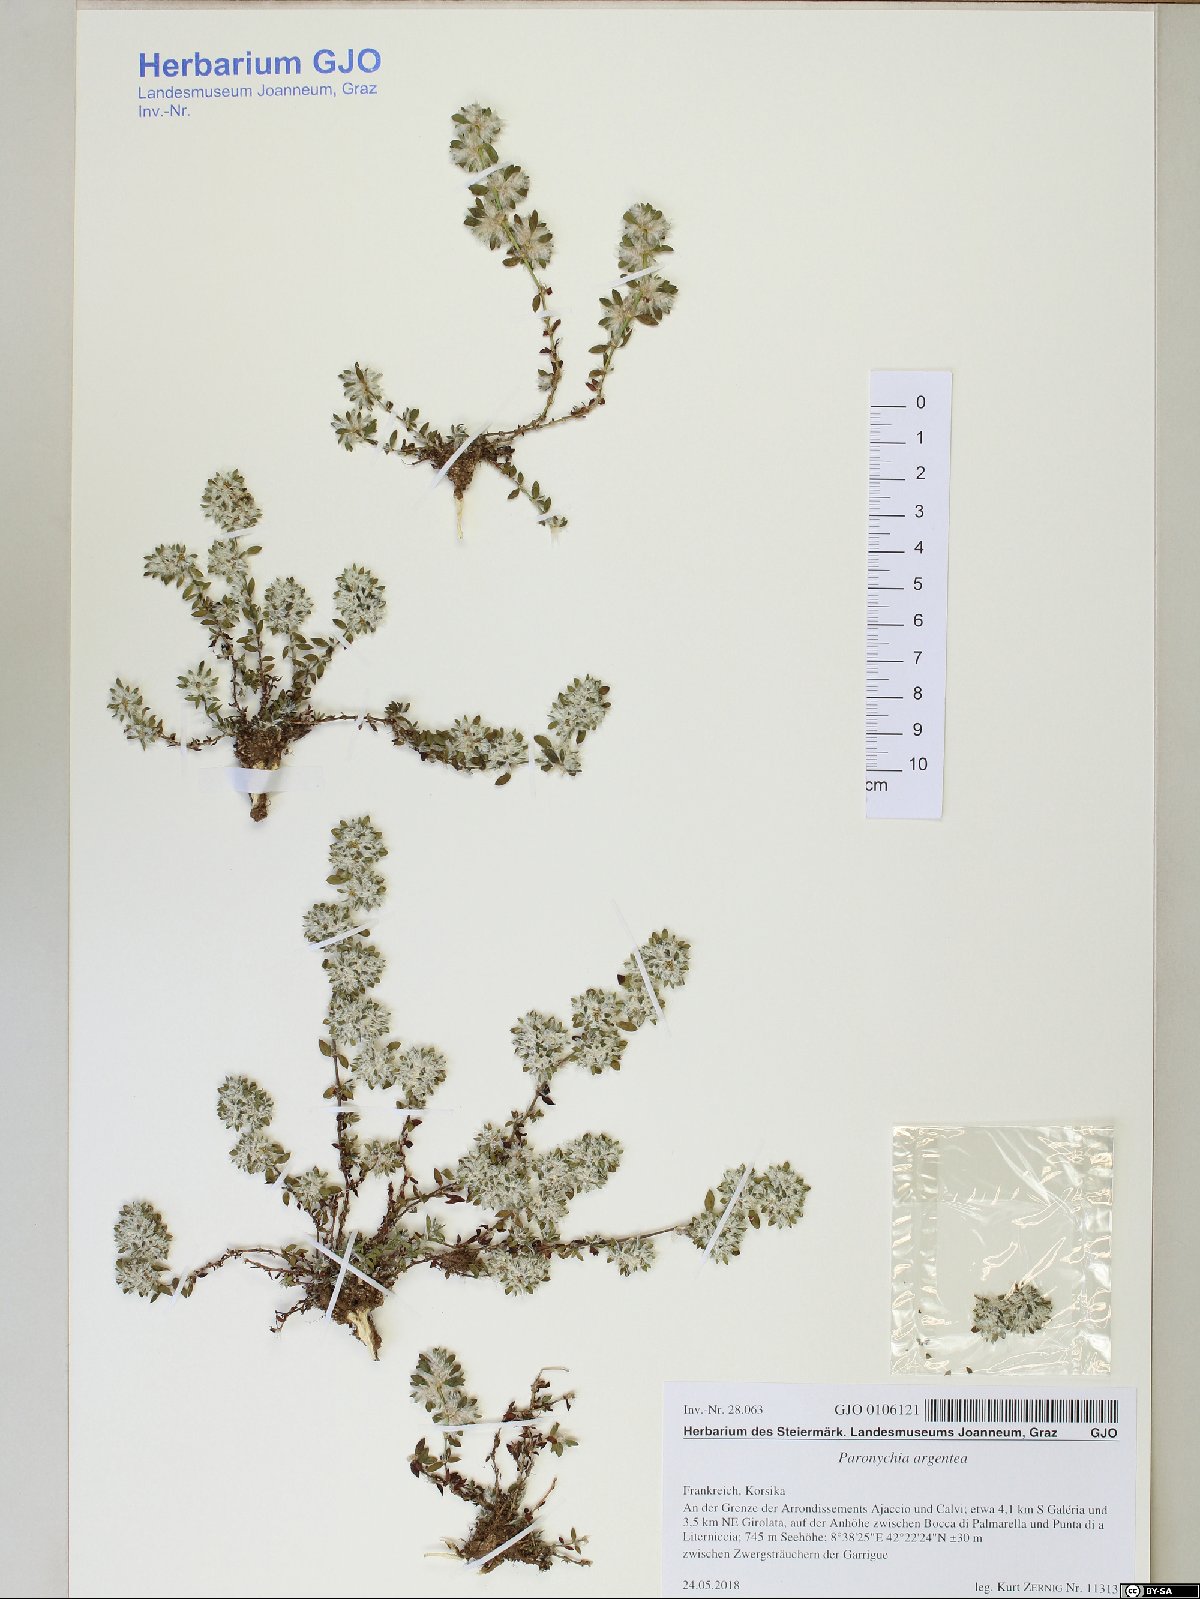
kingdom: Plantae
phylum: Tracheophyta
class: Magnoliopsida
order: Caryophyllales
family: Caryophyllaceae
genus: Paronychia
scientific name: Paronychia argentea
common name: Silver nailroot
